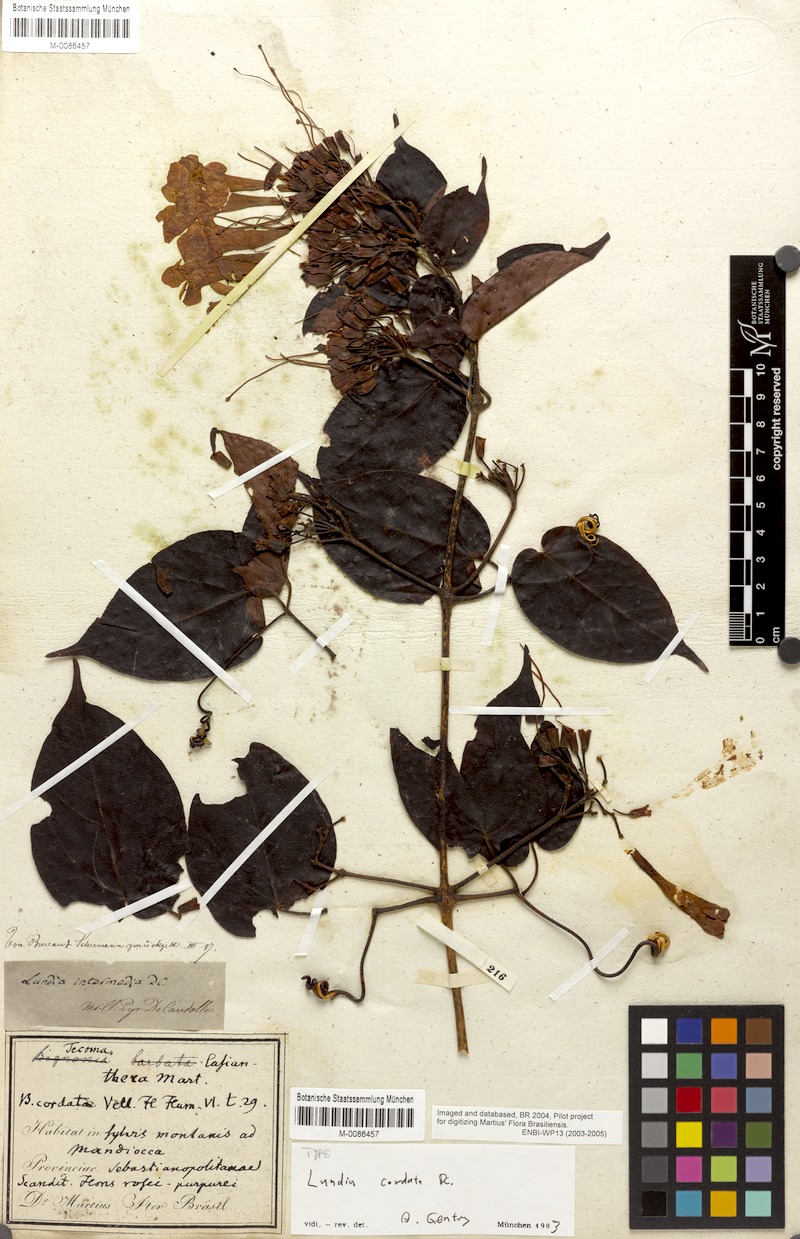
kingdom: Plantae
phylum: Tracheophyta
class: Magnoliopsida
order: Lamiales
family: Bignoniaceae
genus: Lundia
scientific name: Lundia longa
